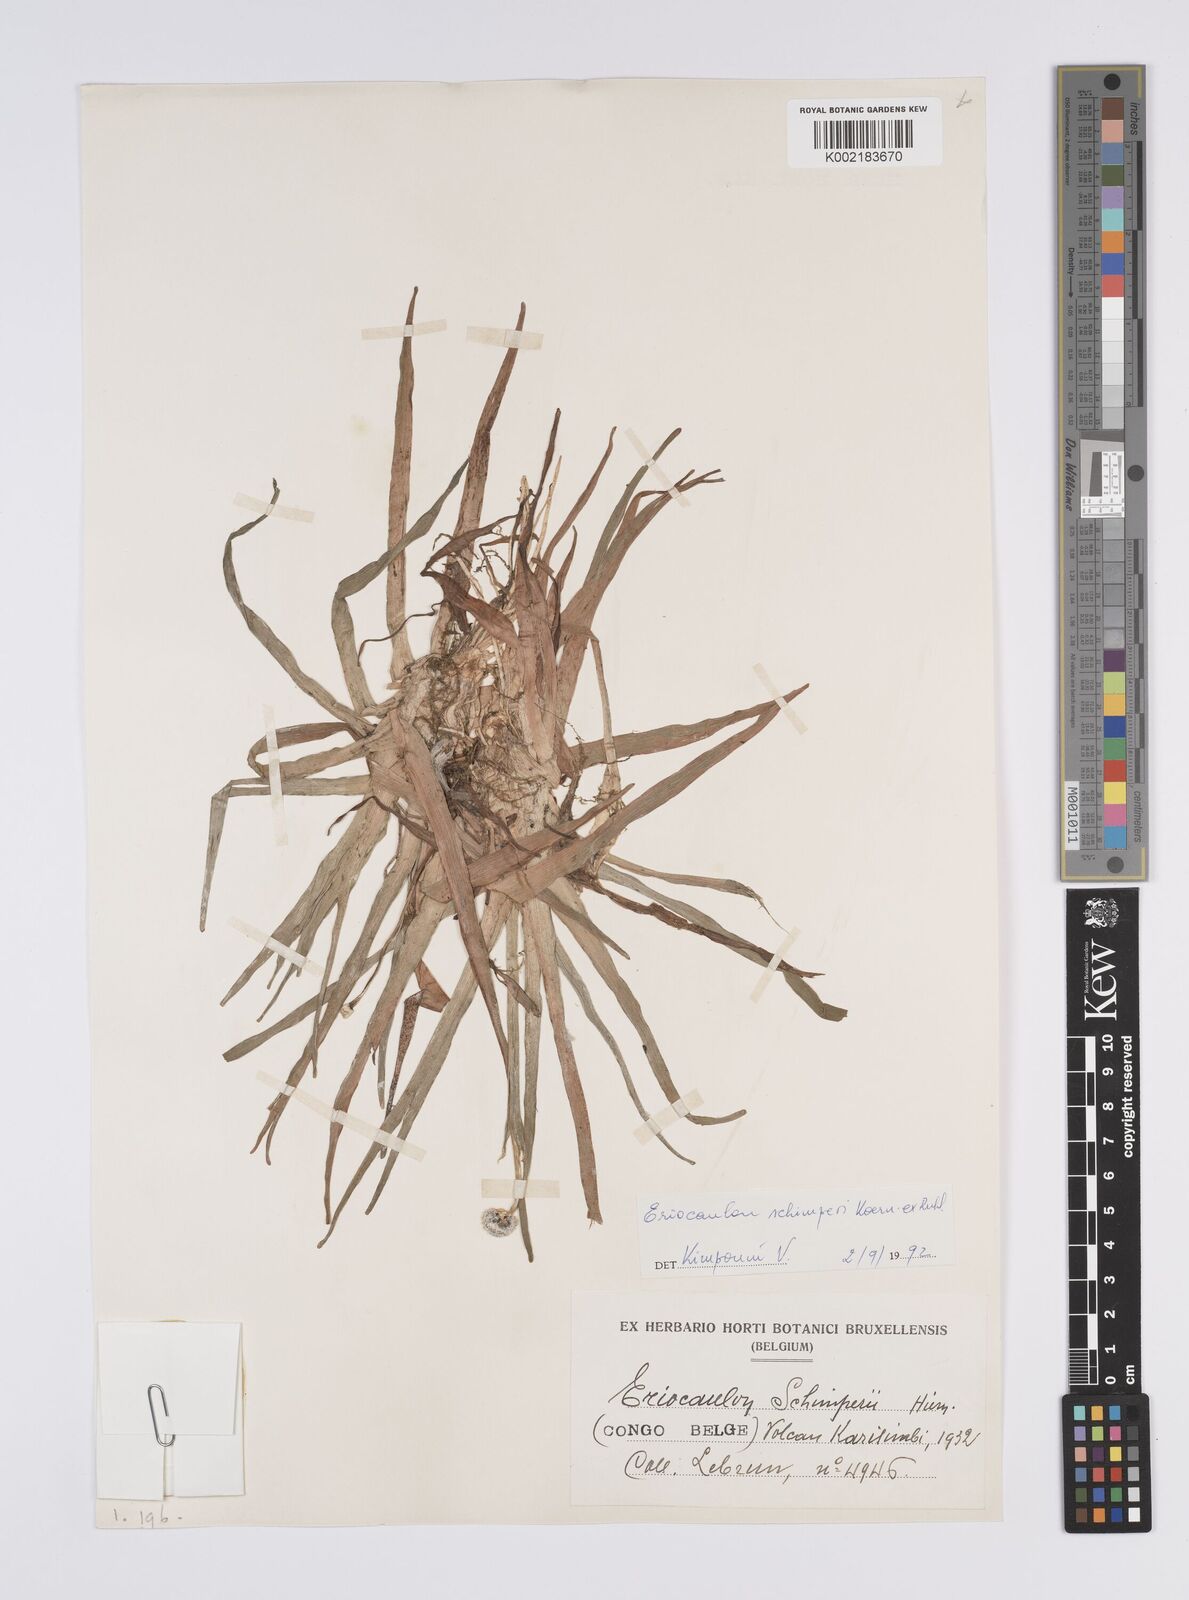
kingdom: Plantae
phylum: Tracheophyta
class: Liliopsida
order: Poales
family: Eriocaulaceae
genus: Eriocaulon
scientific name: Eriocaulon schimperi
